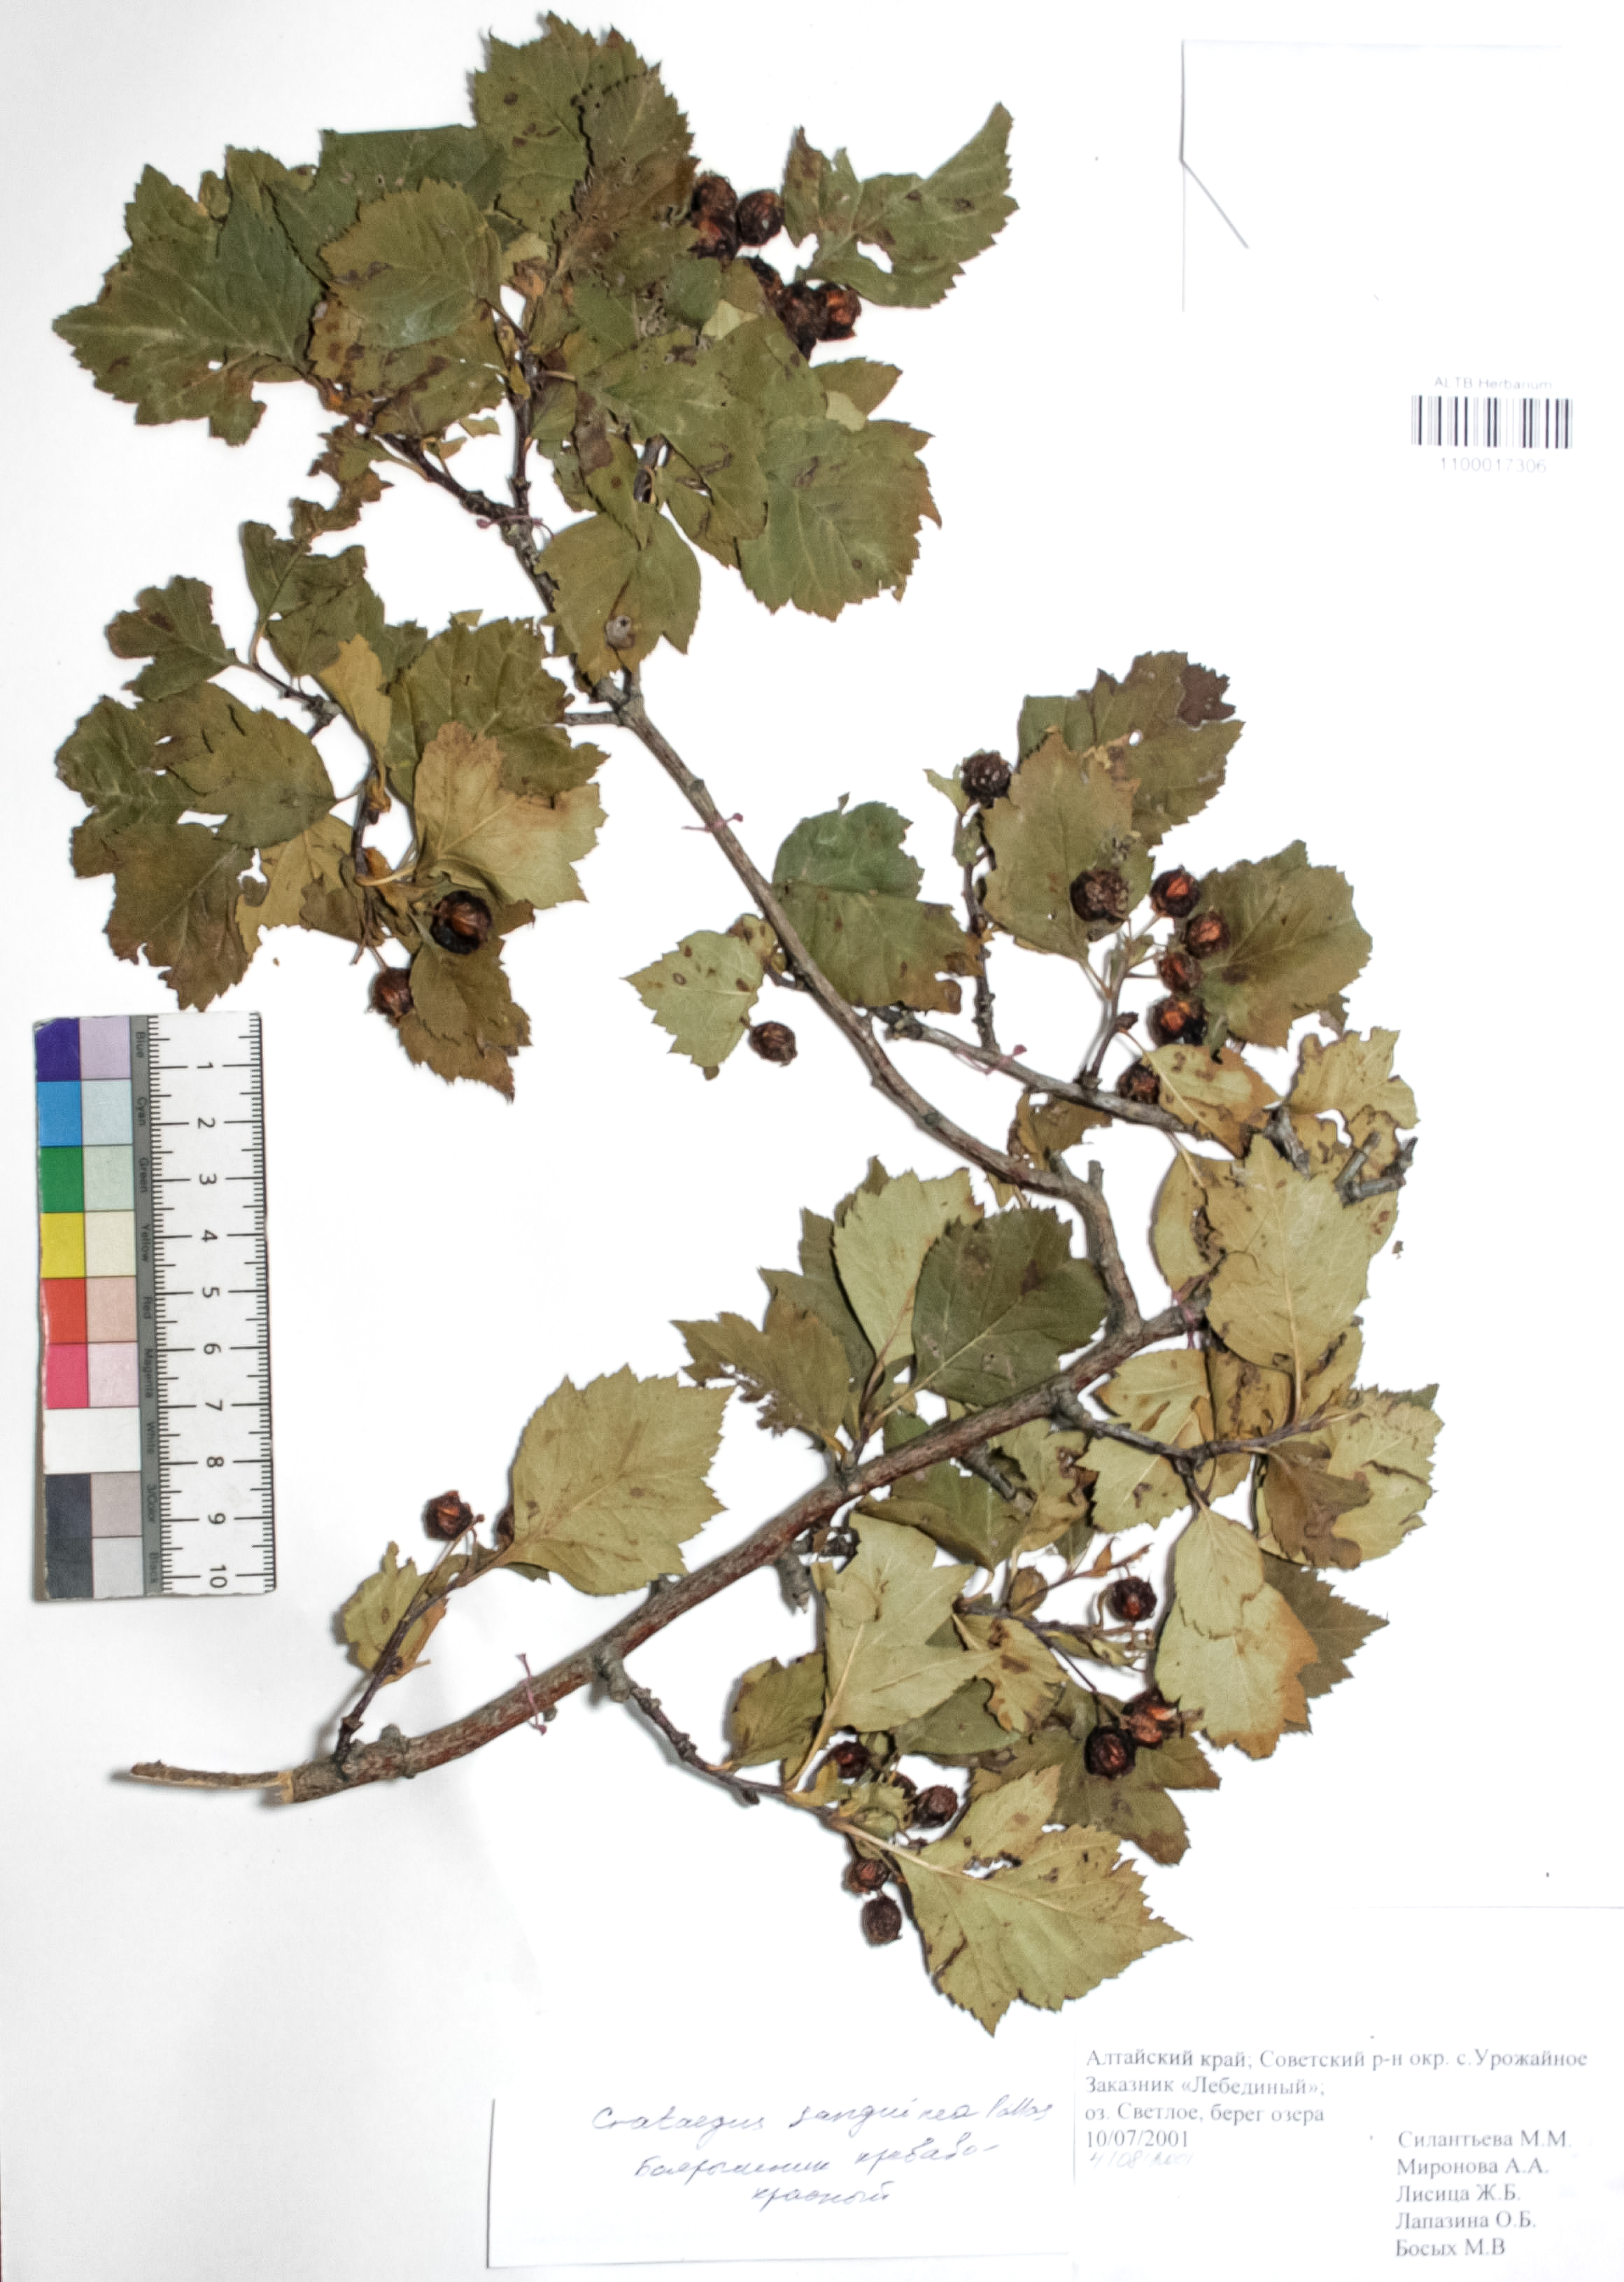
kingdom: Plantae
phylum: Tracheophyta
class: Magnoliopsida
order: Rosales
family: Rosaceae
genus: Crataegus
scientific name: Crataegus sanguinea
